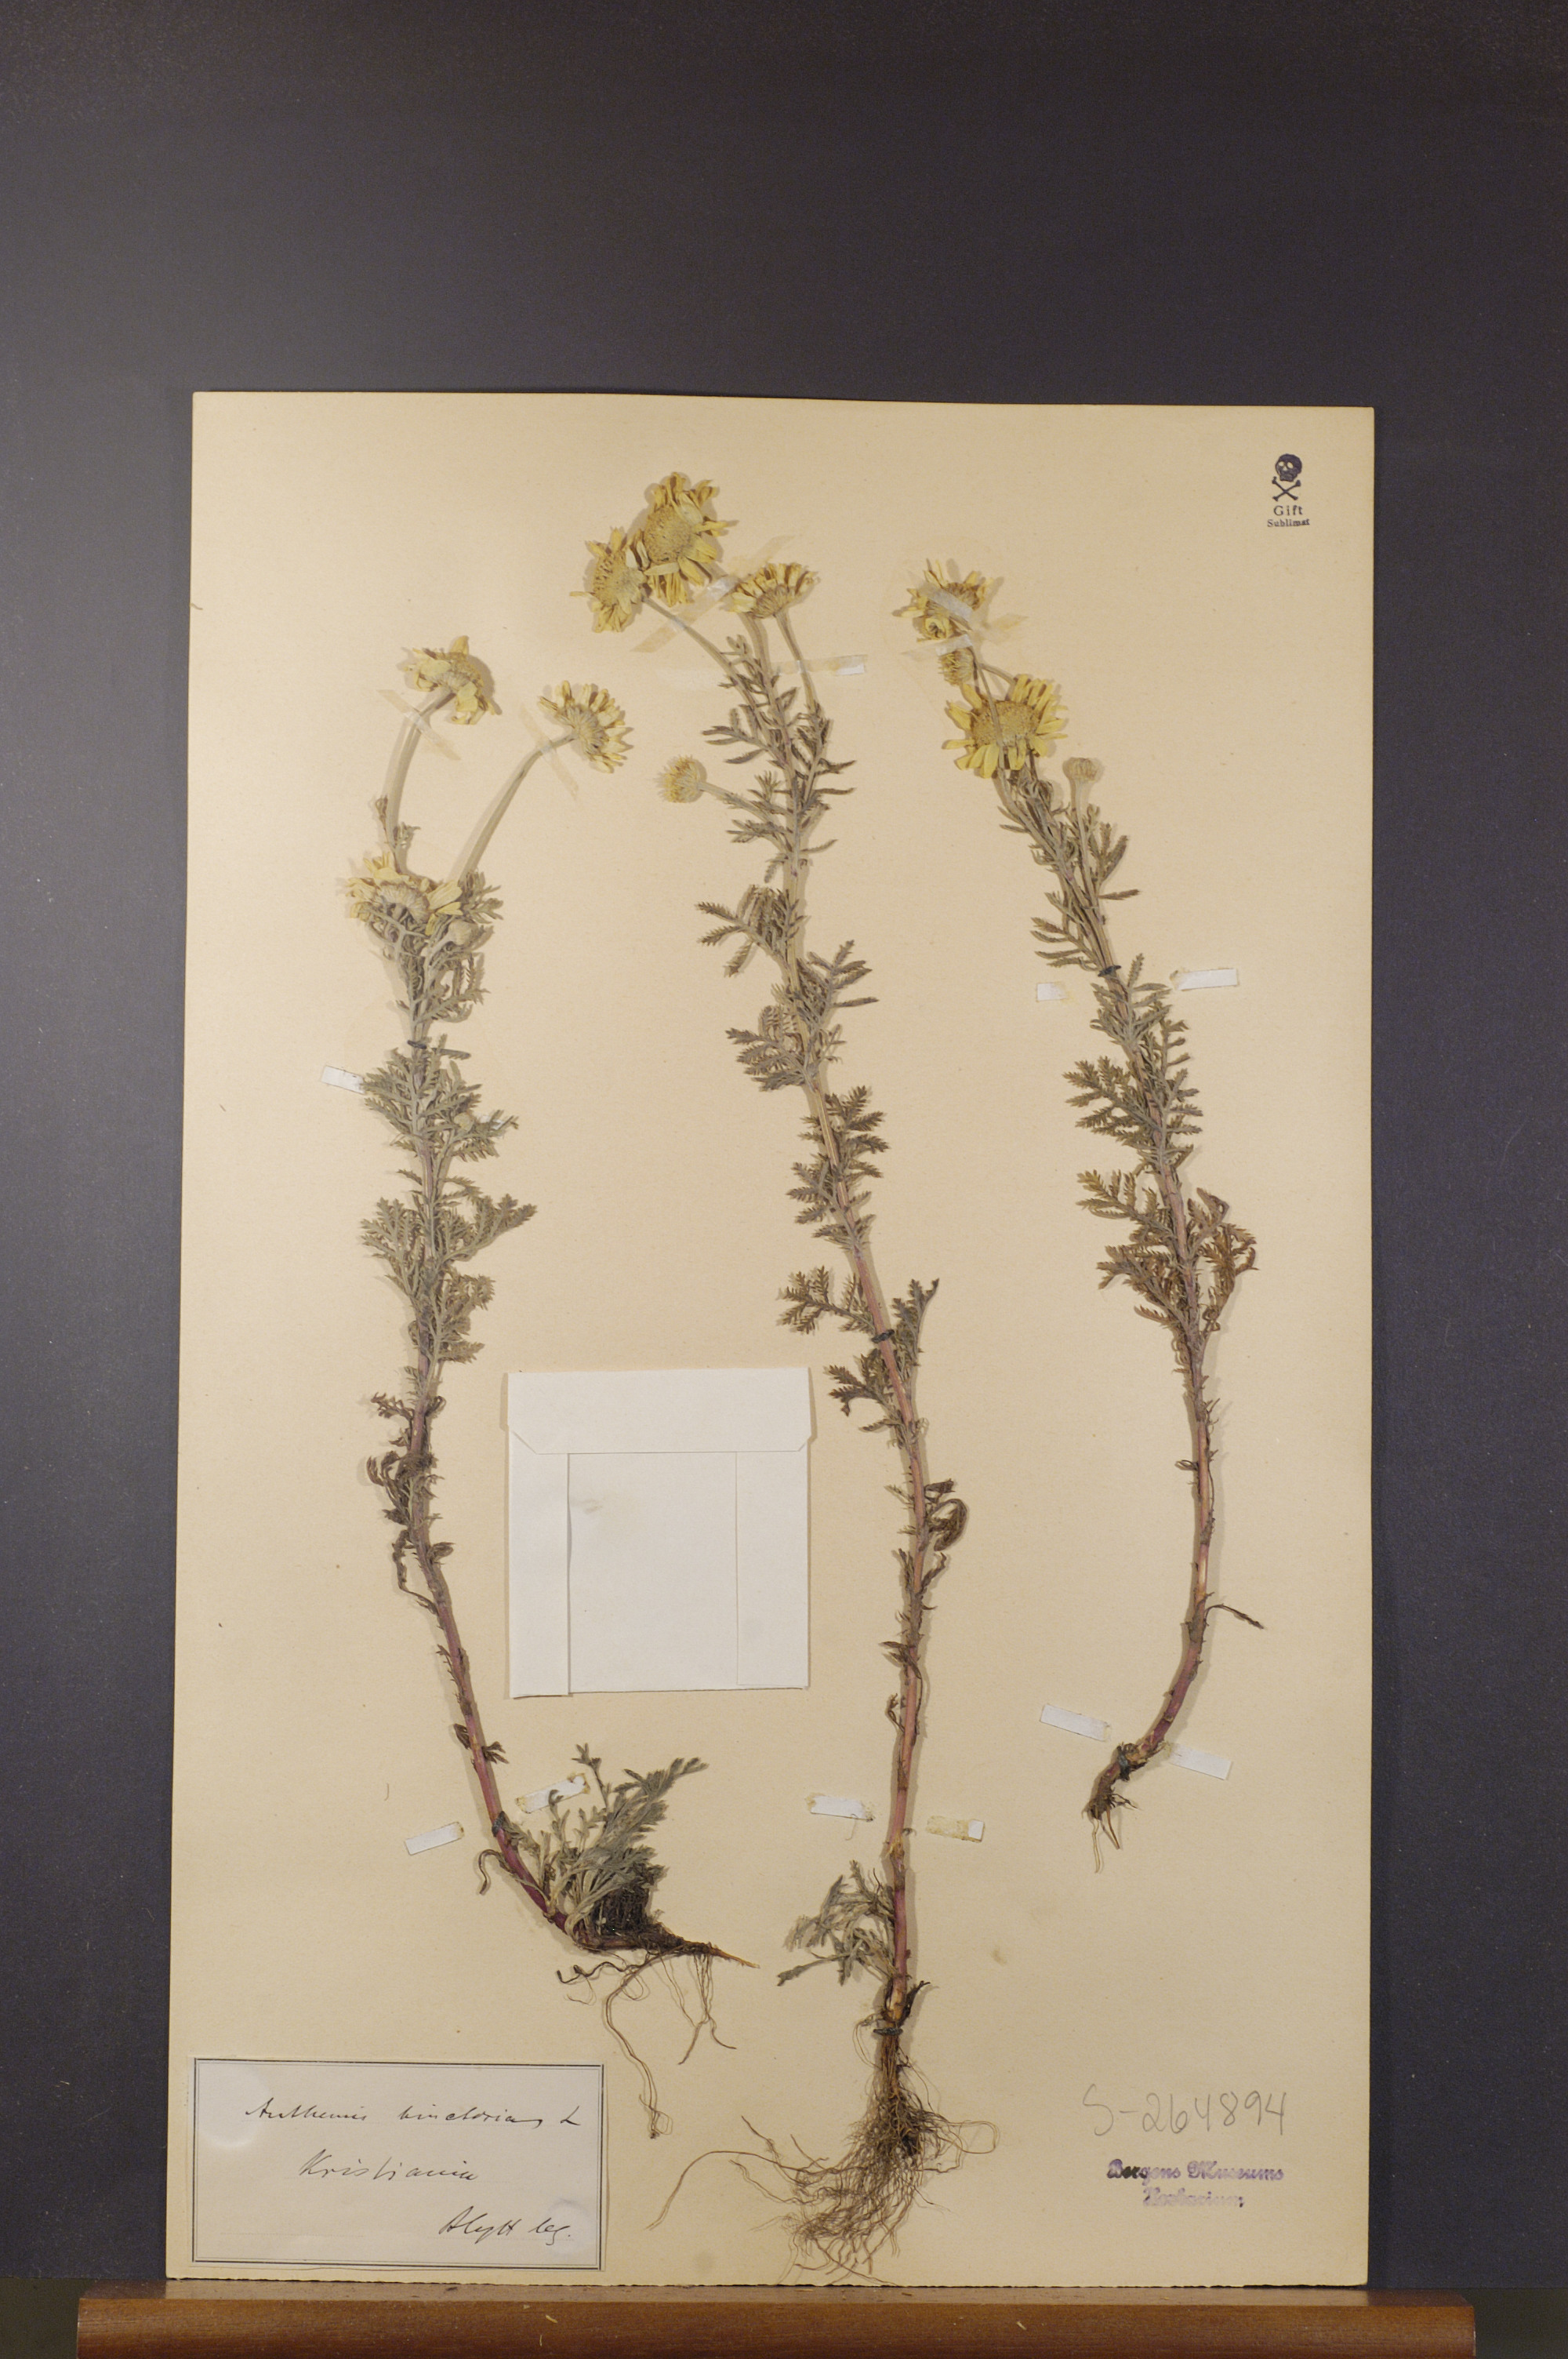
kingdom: Plantae
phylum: Tracheophyta
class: Magnoliopsida
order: Asterales
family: Asteraceae
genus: Cota
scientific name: Cota tinctoria
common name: Golden chamomile
